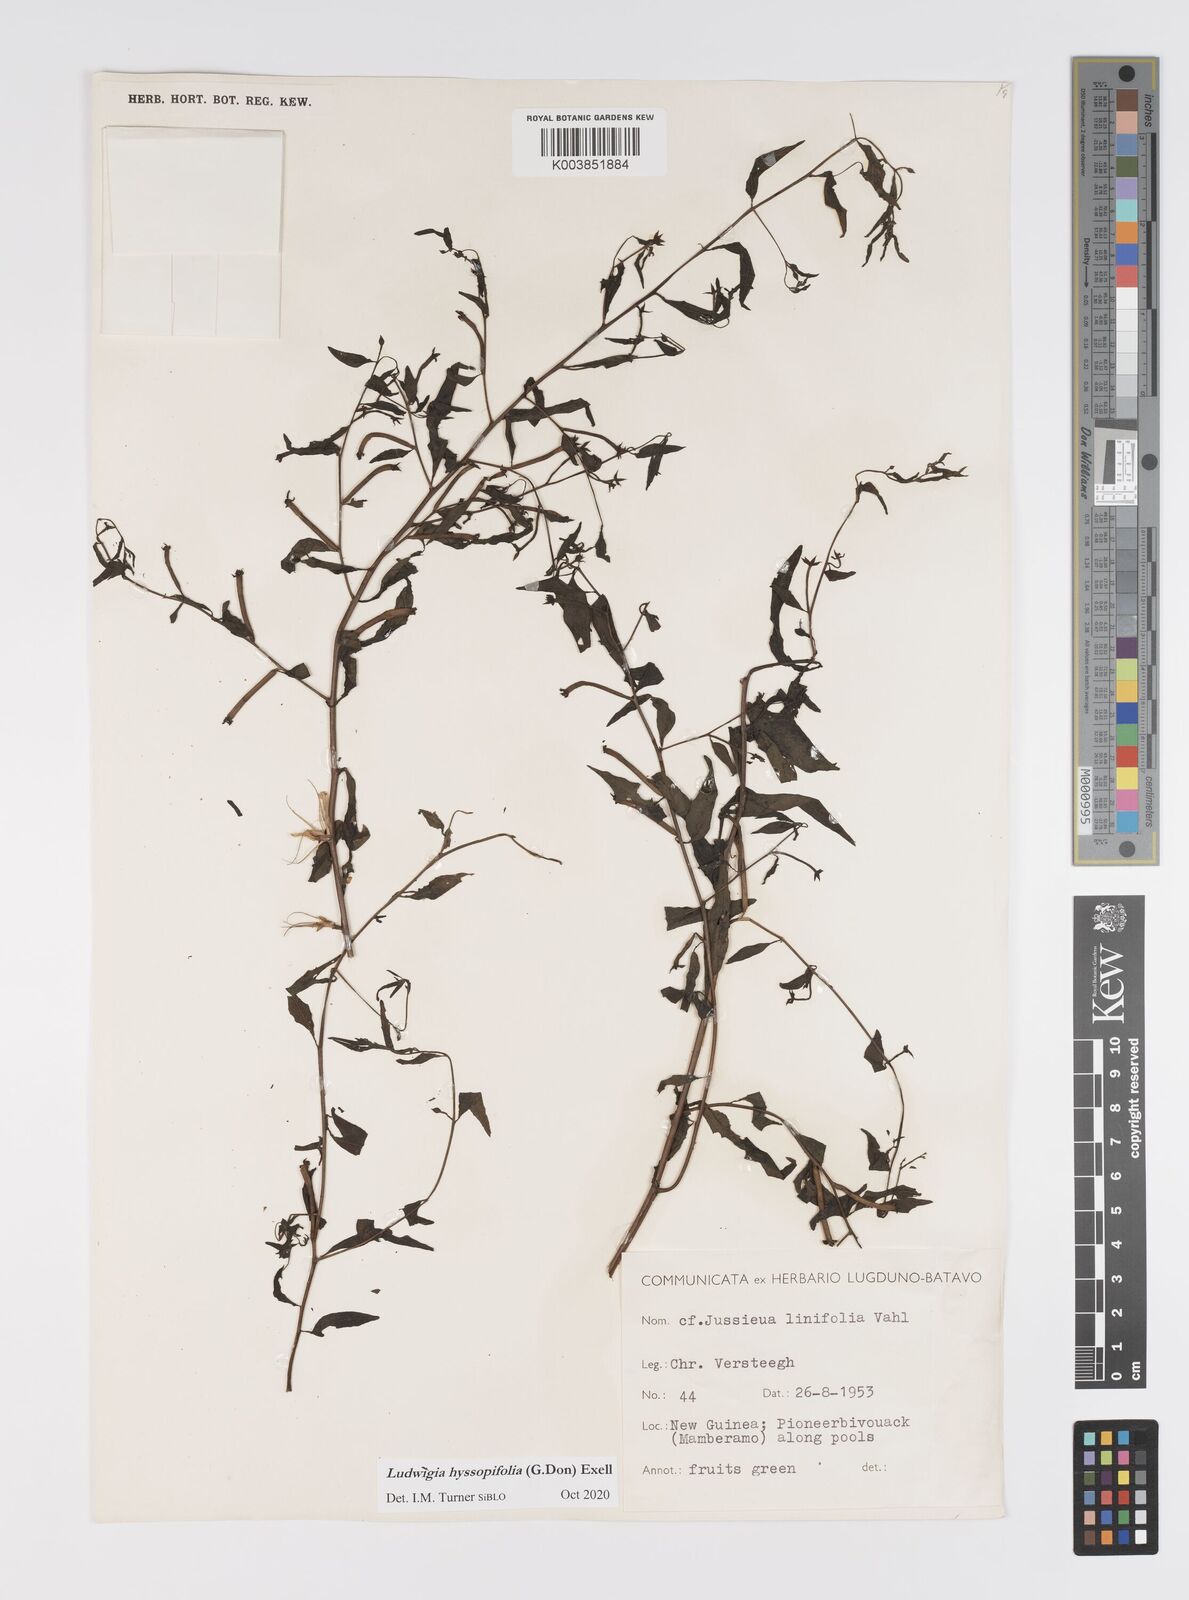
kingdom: Plantae
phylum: Tracheophyta
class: Magnoliopsida
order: Myrtales
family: Onagraceae
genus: Ludwigia
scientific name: Ludwigia hyssopifolia
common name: Linear leaf water primrose
